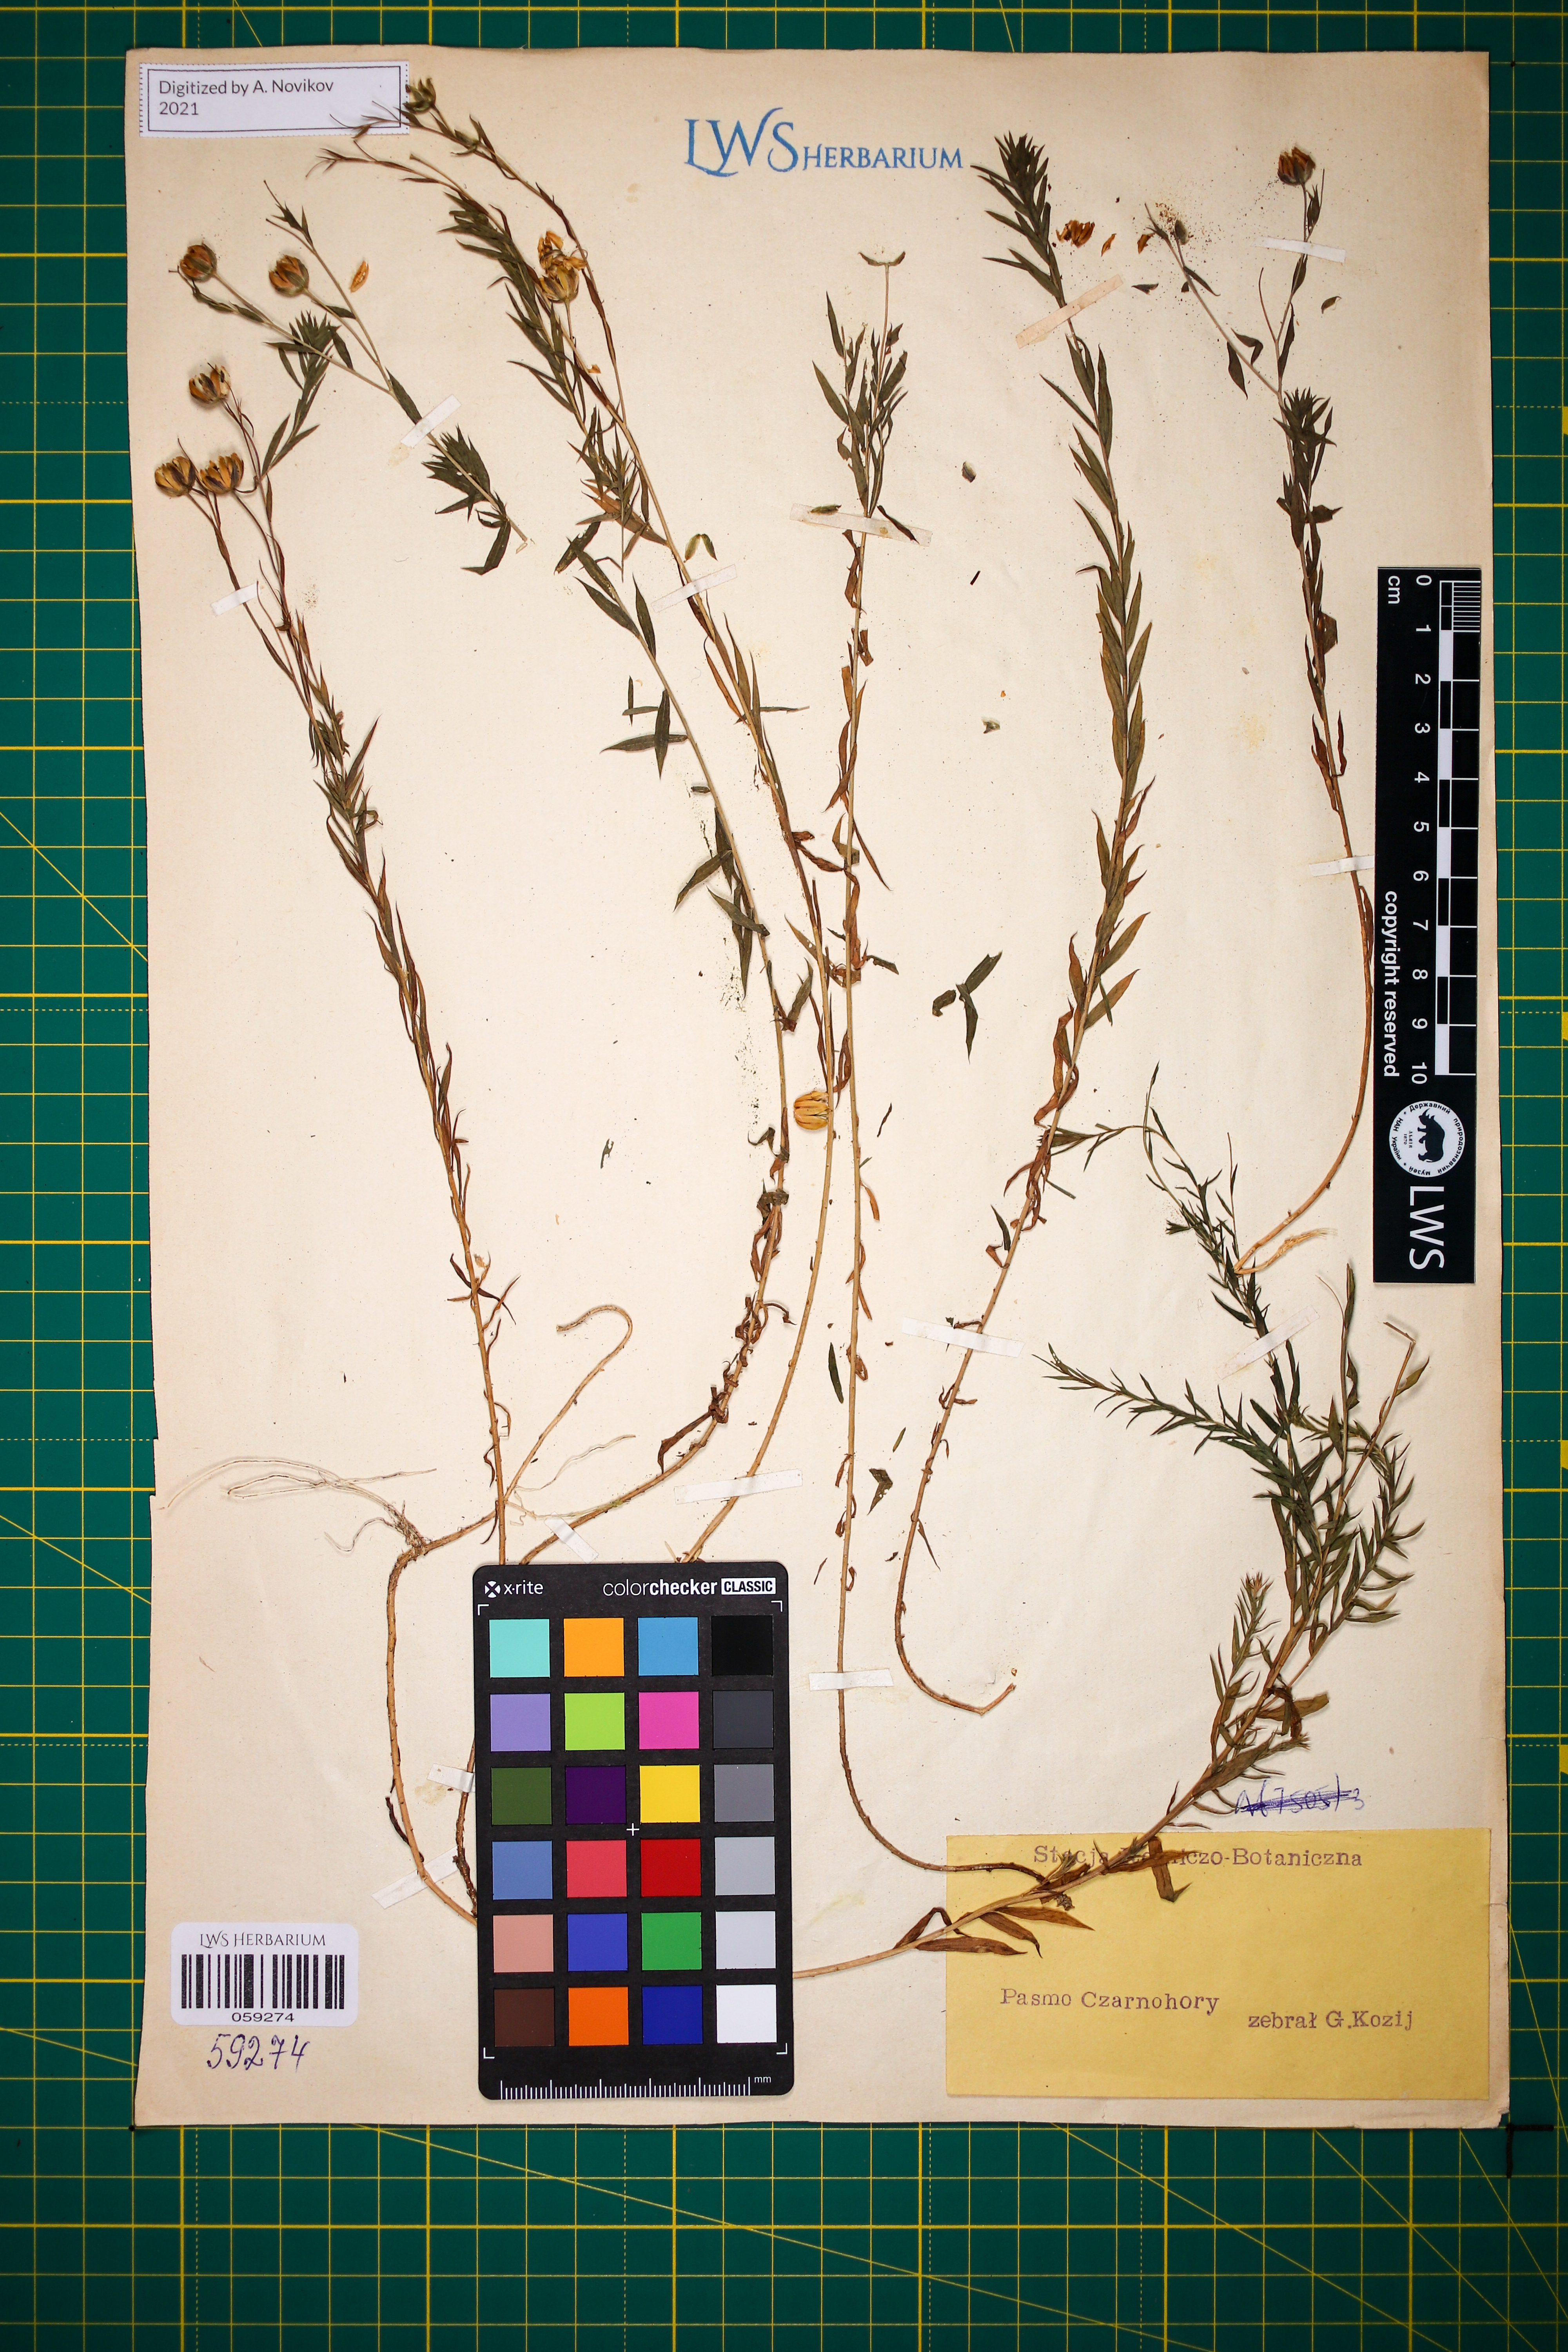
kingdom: Plantae
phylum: Tracheophyta
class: Magnoliopsida
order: Malpighiales
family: Linaceae
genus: Linum
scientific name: Linum perenne
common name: Blue flax
